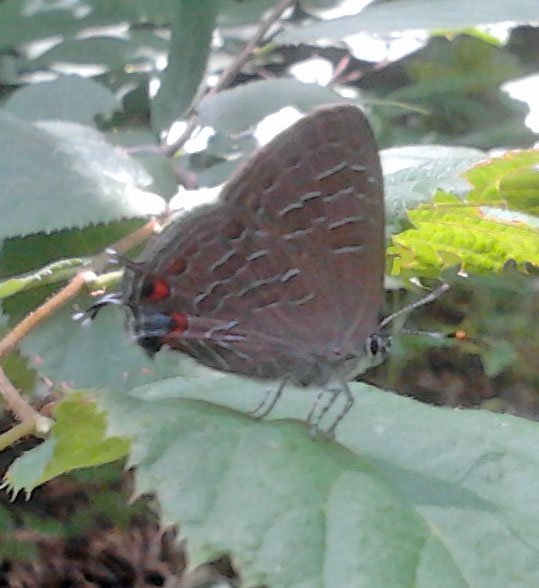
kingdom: Animalia
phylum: Arthropoda
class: Insecta
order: Lepidoptera
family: Lycaenidae
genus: Satyrium
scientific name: Satyrium liparops
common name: Striped Hairstreak
